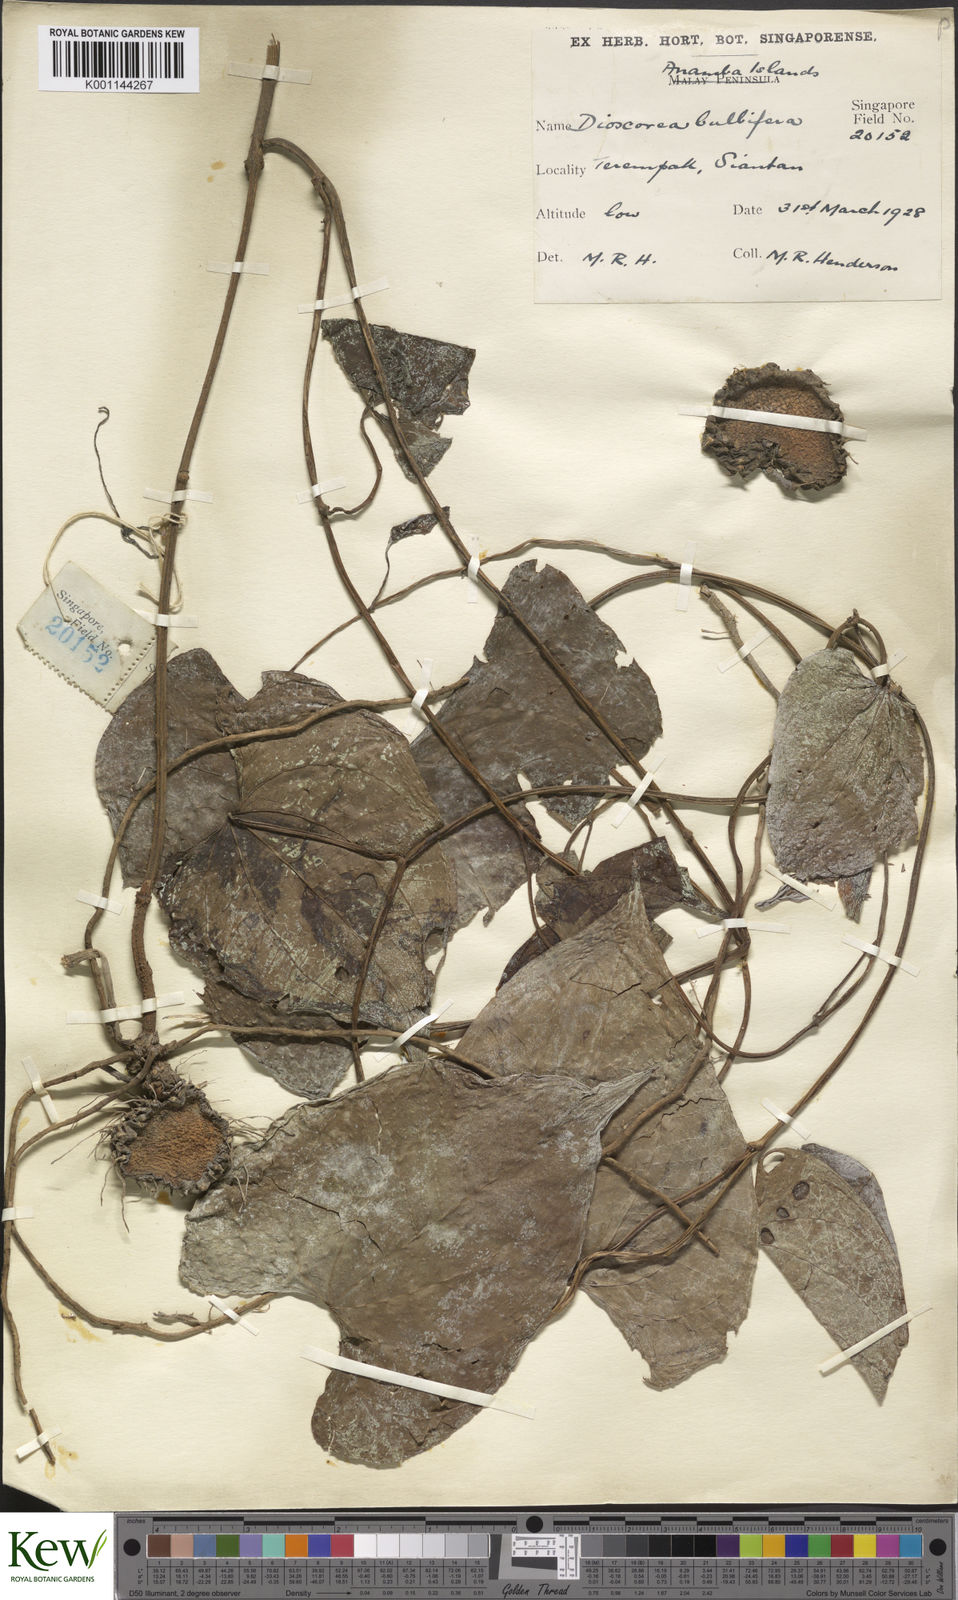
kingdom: Plantae
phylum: Tracheophyta
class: Liliopsida
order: Dioscoreales
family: Dioscoreaceae
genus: Dioscorea
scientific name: Dioscorea bulbifera
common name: Air yam
